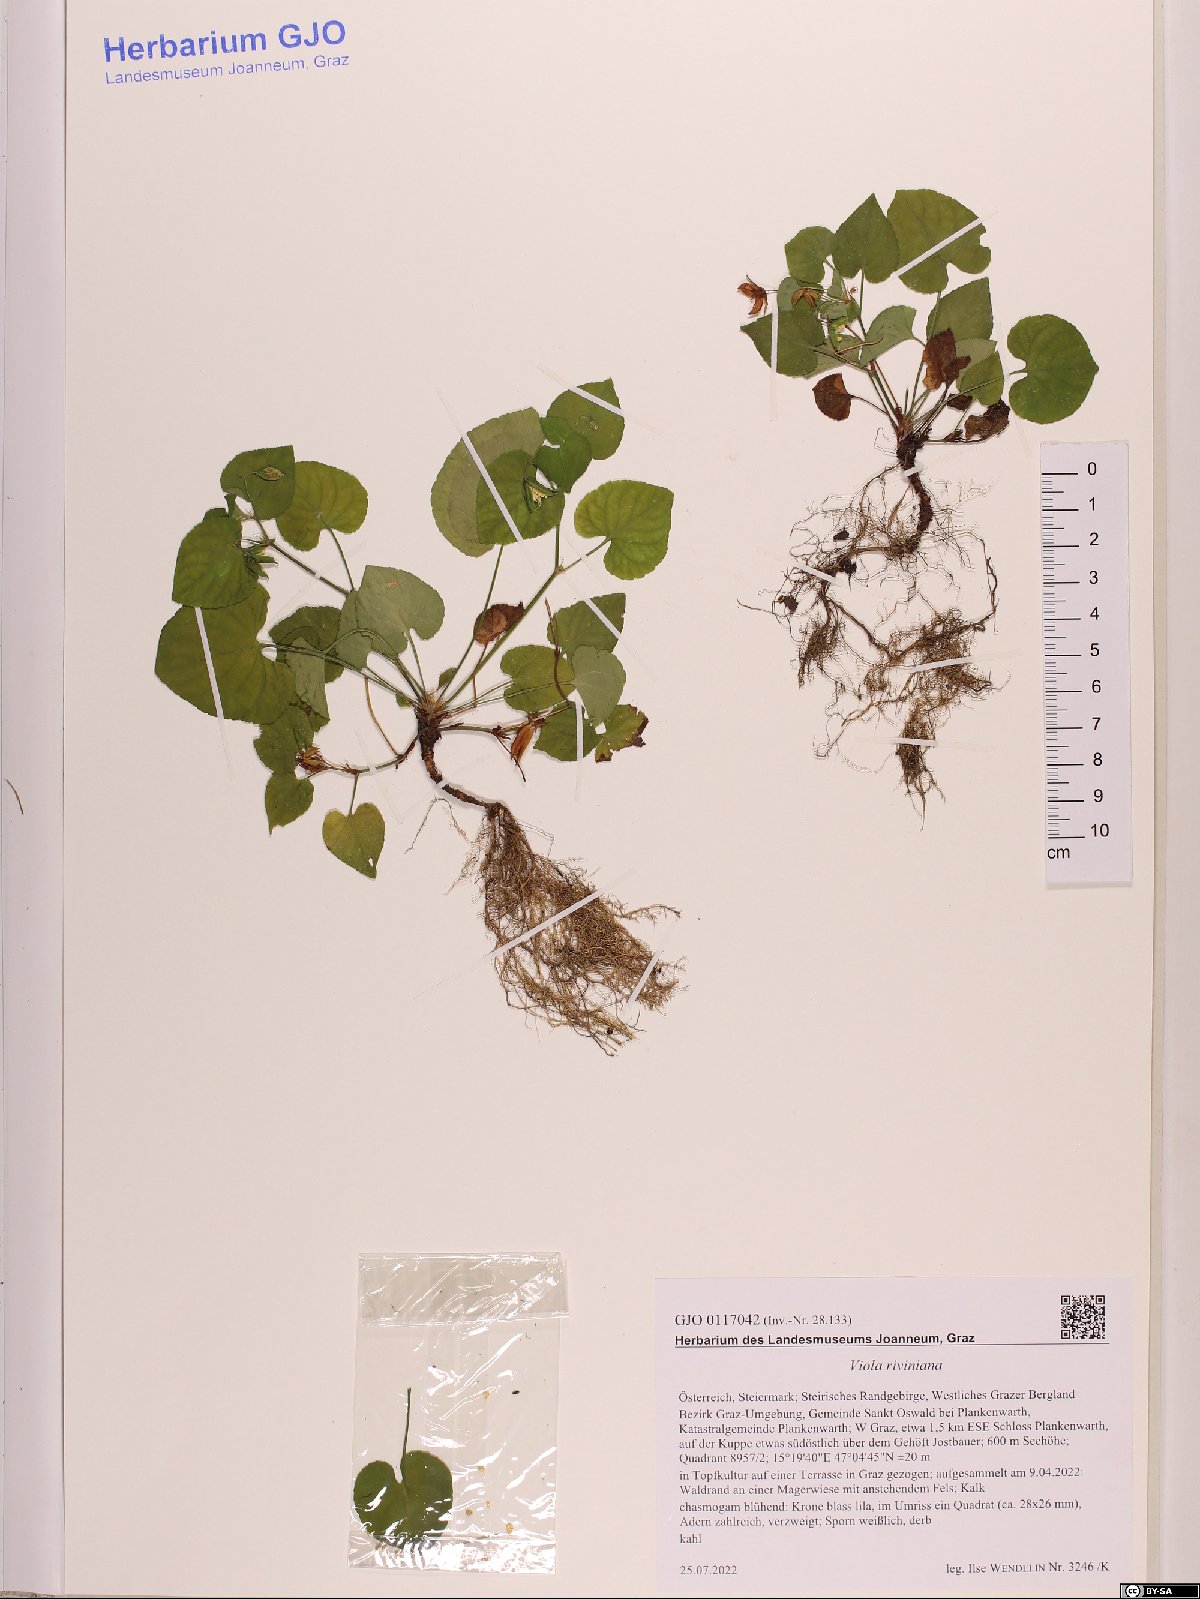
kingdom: Plantae
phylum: Tracheophyta
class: Magnoliopsida
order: Malpighiales
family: Violaceae
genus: Viola
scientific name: Viola riviniana
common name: Common dog-violet
